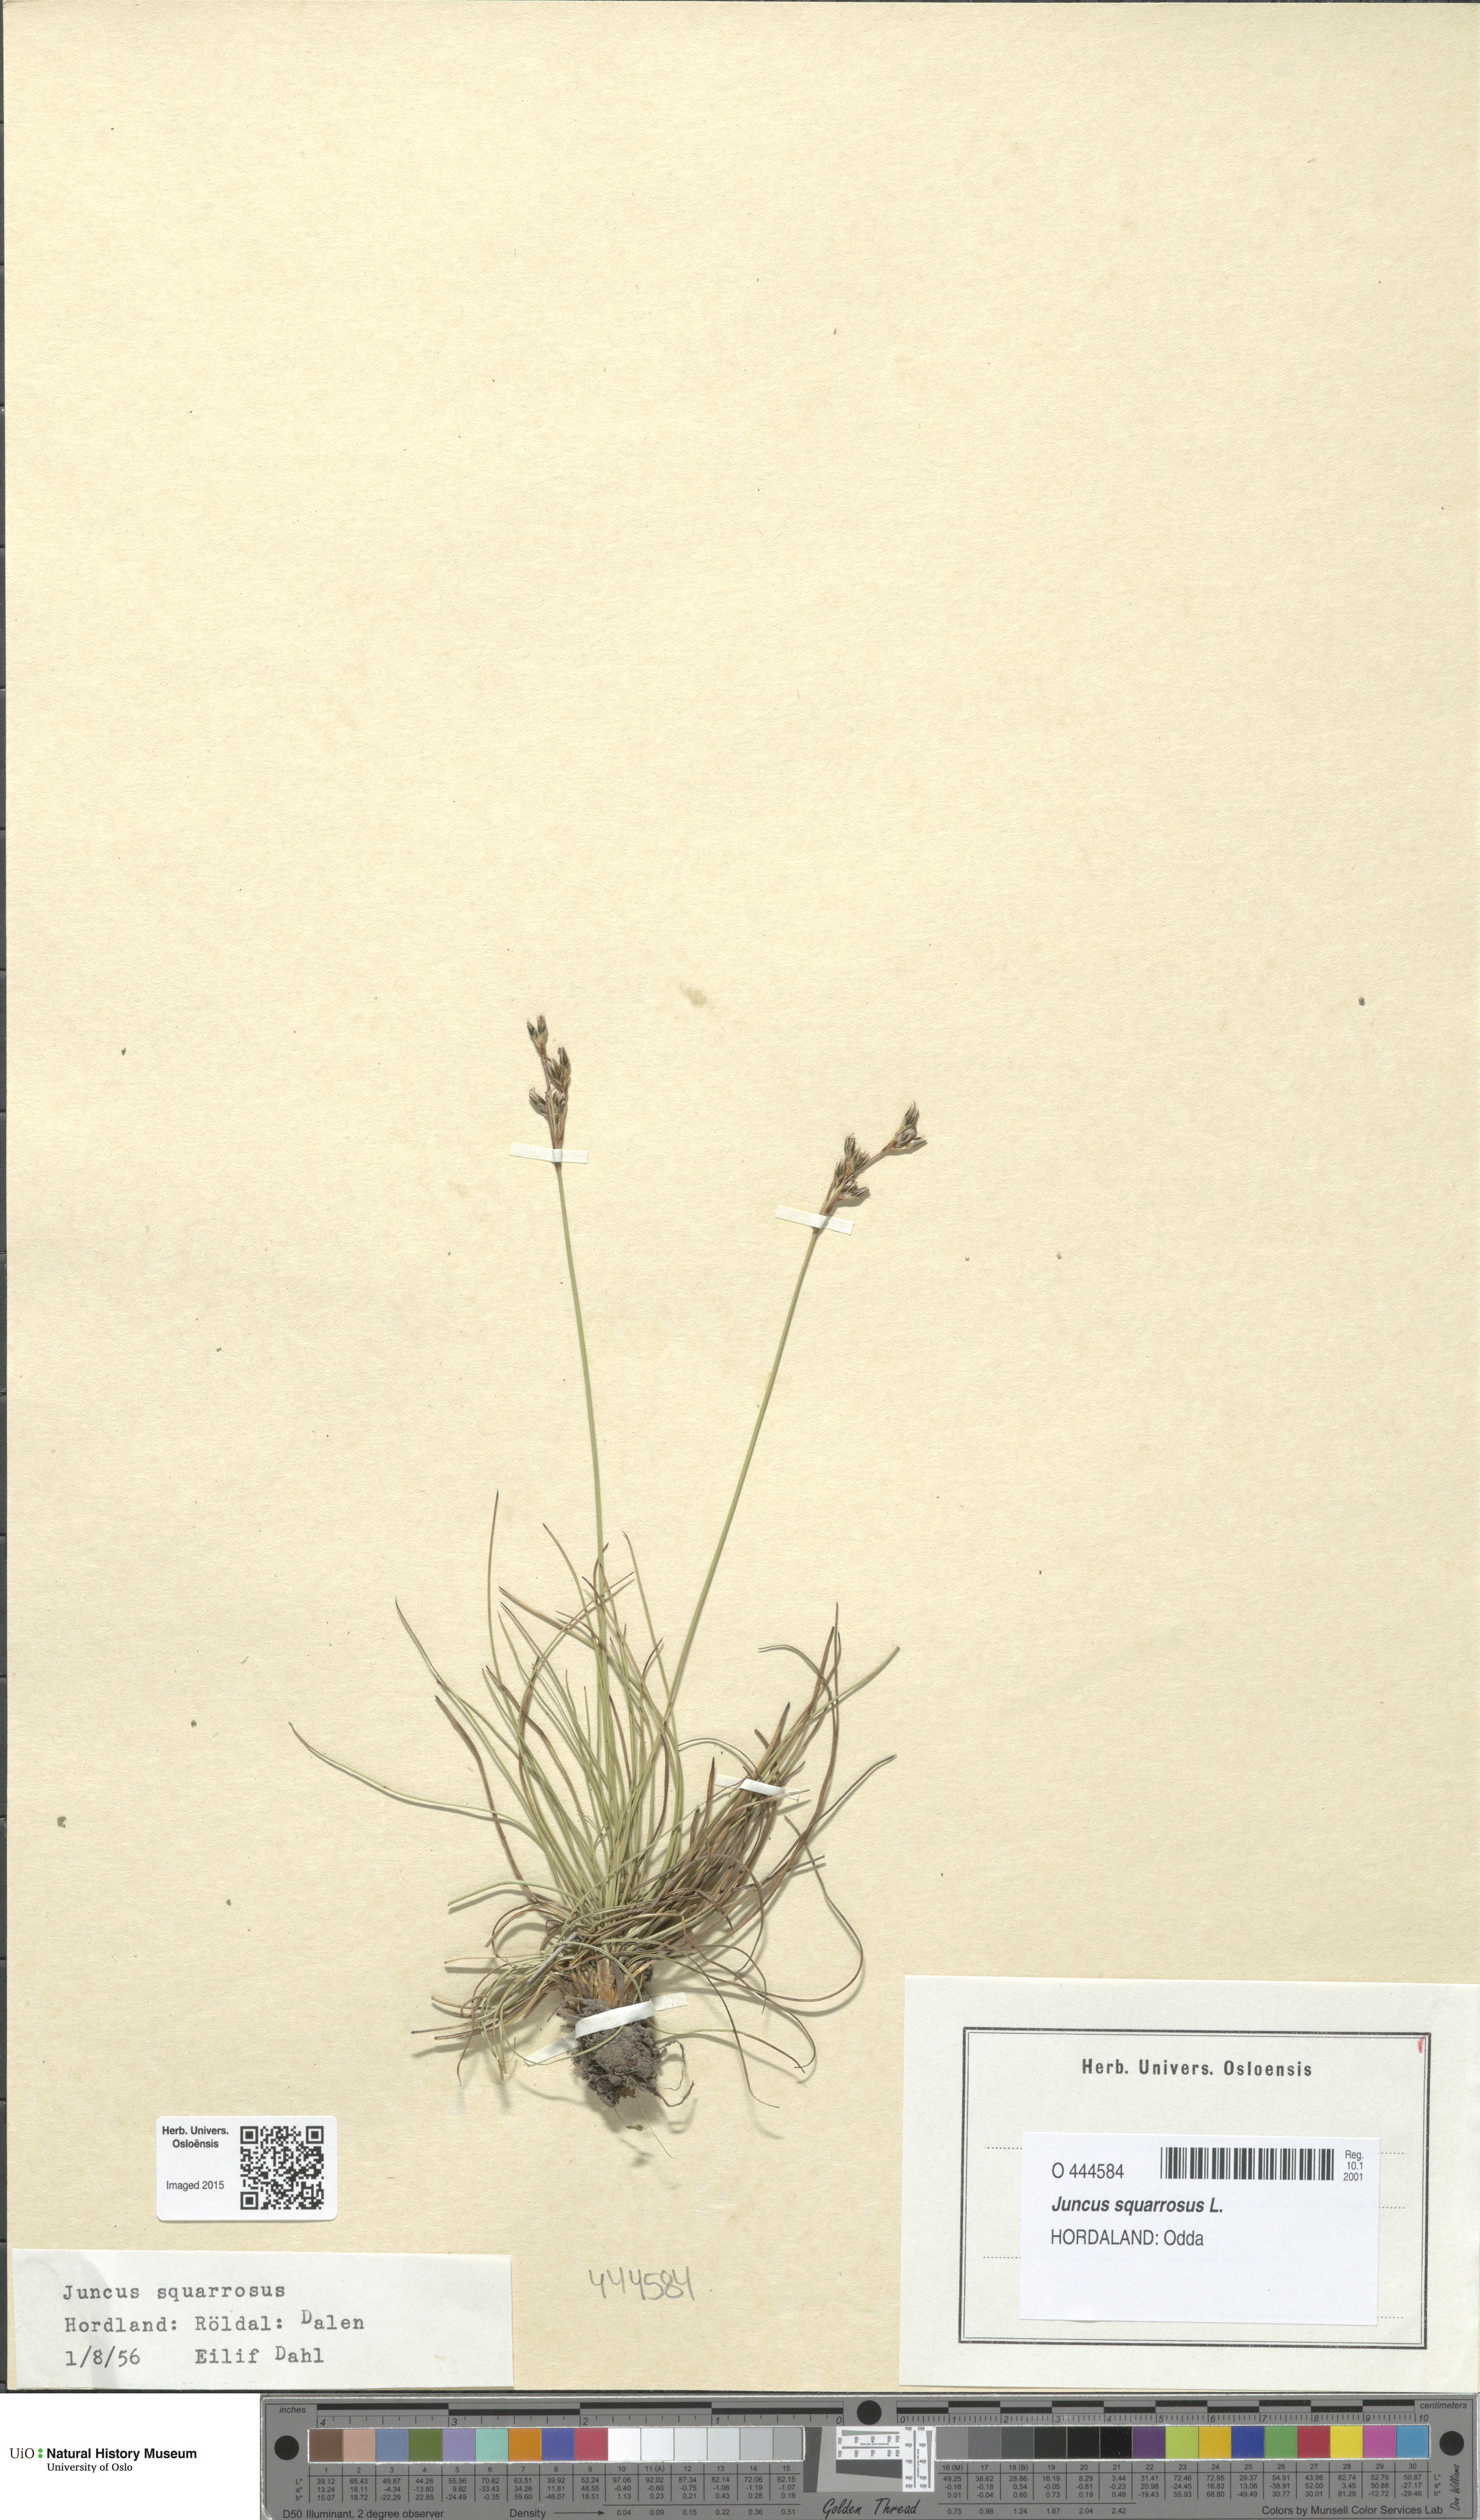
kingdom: Plantae
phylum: Tracheophyta
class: Liliopsida
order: Poales
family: Juncaceae
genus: Juncus
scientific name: Juncus squarrosus
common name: Heath rush
